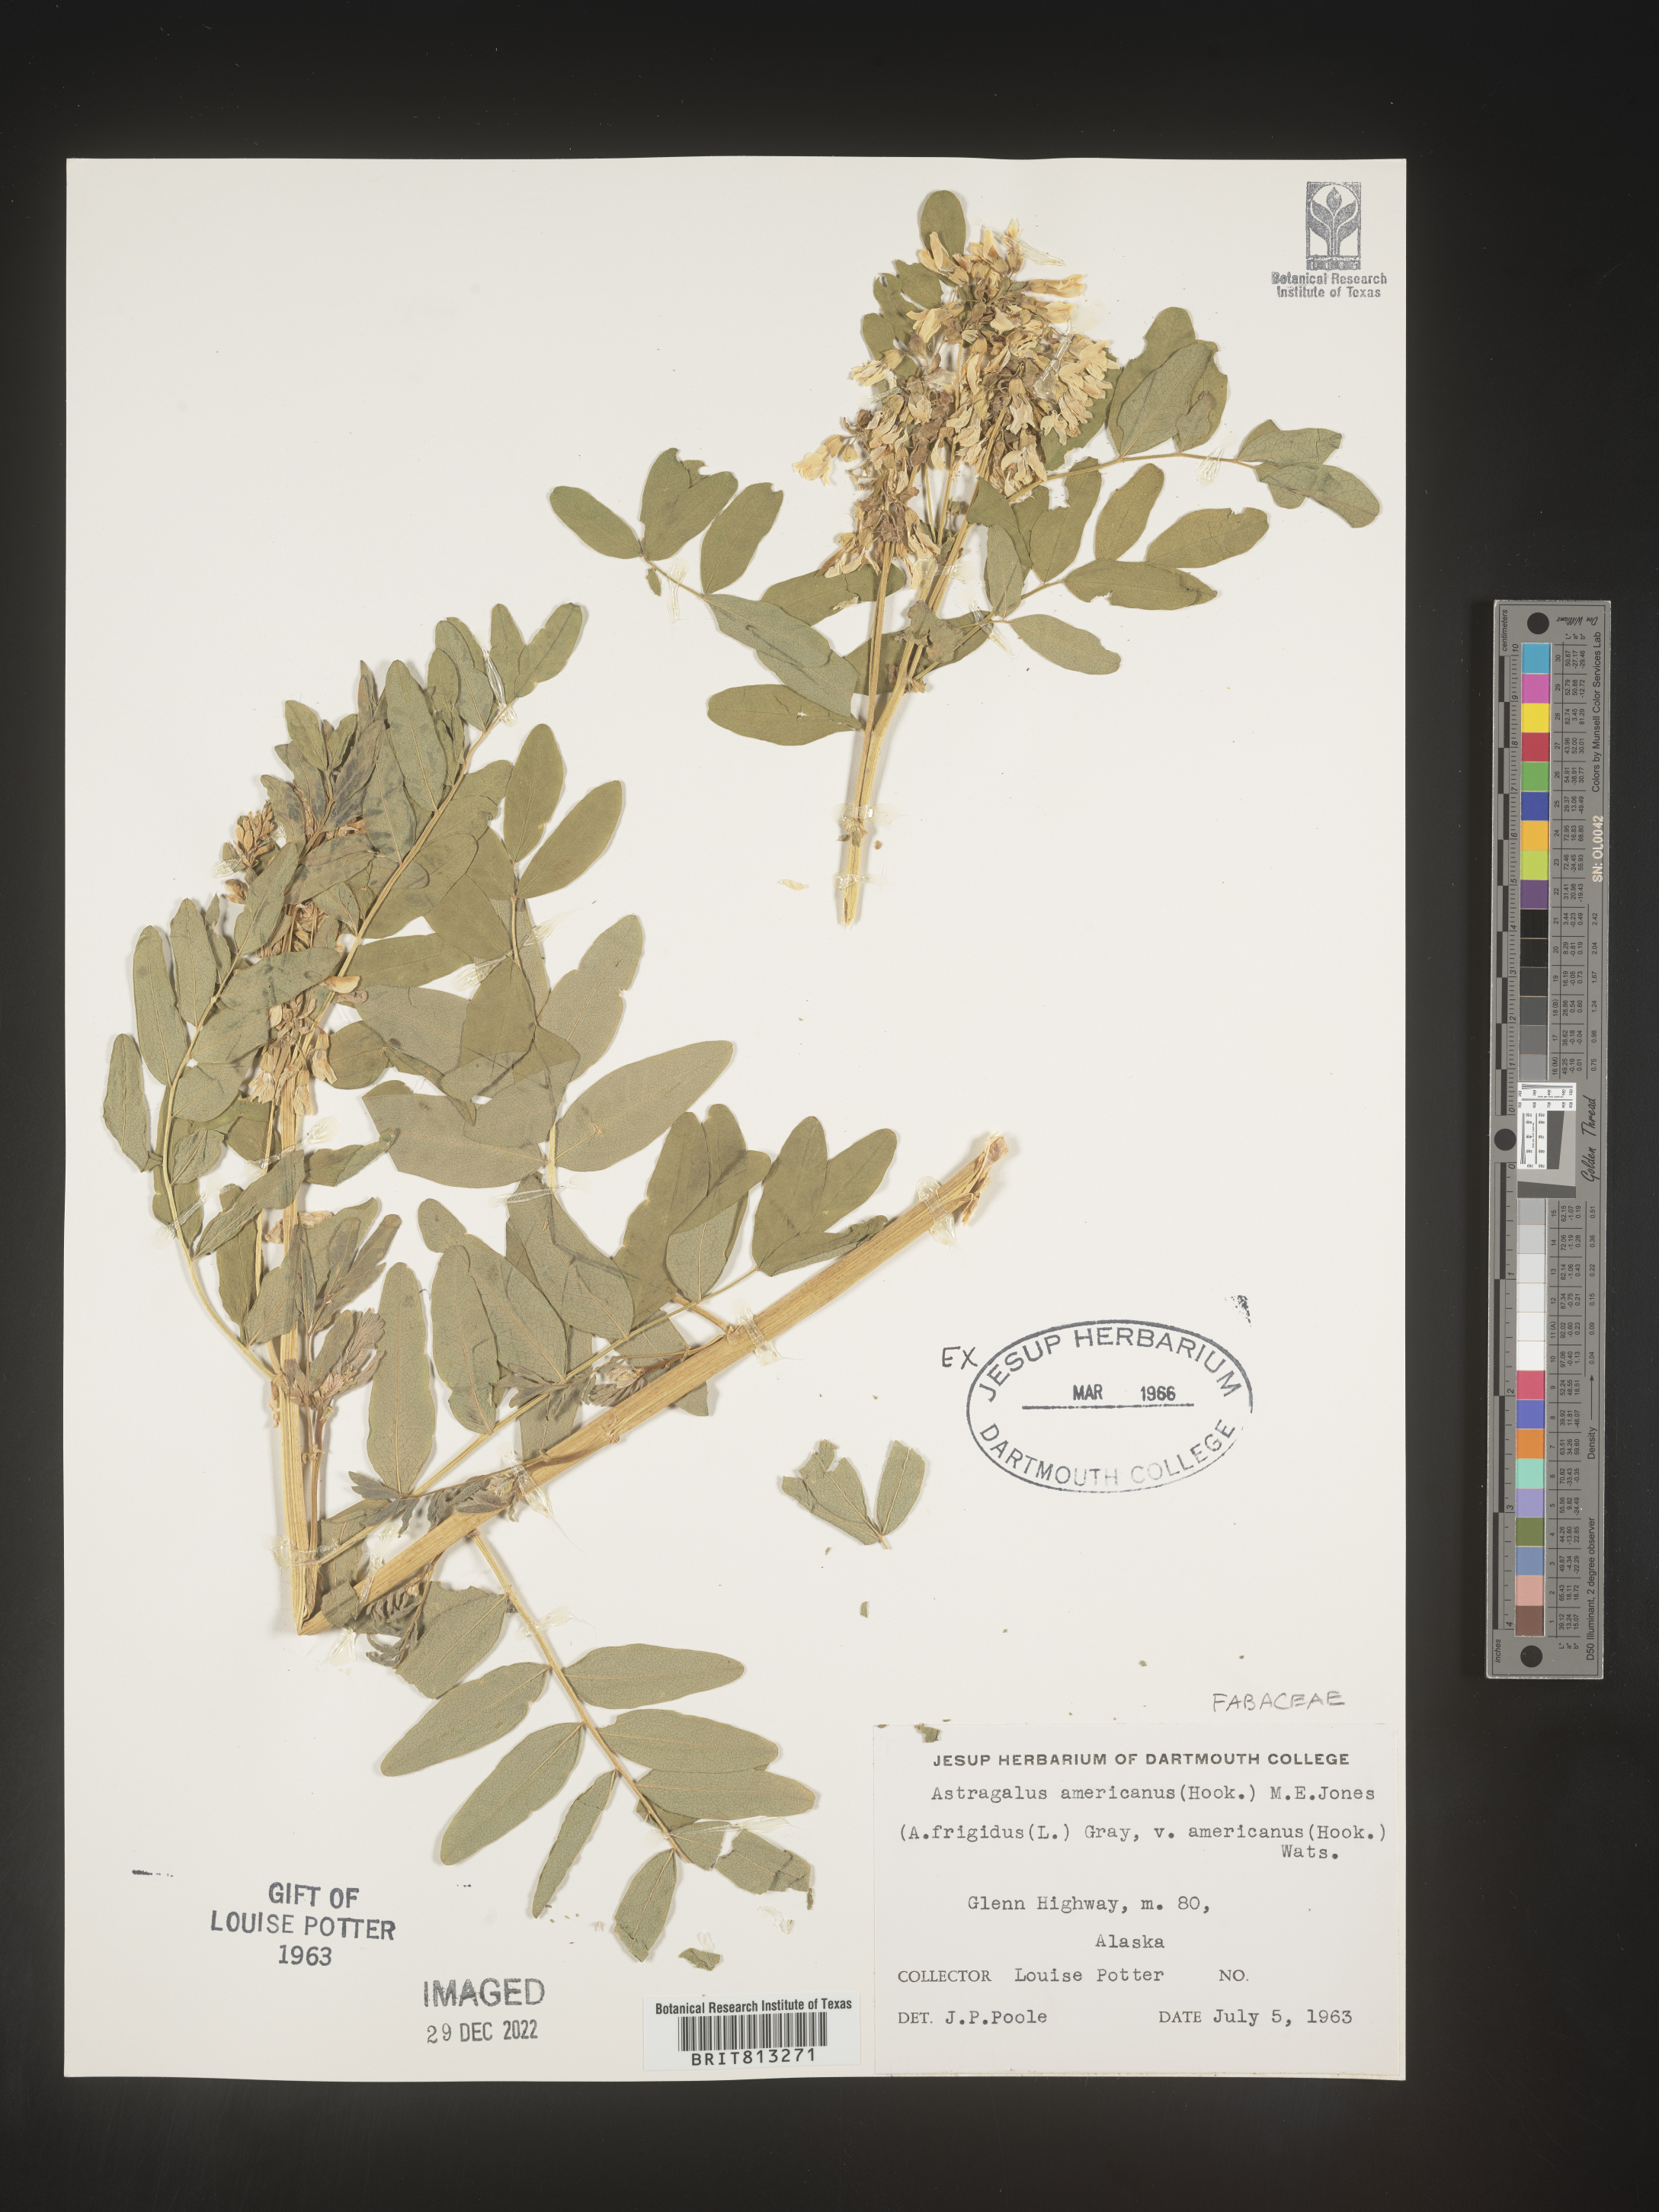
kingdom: Plantae
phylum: Tracheophyta
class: Magnoliopsida
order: Fabales
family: Fabaceae
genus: Astragalus
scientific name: Astragalus
